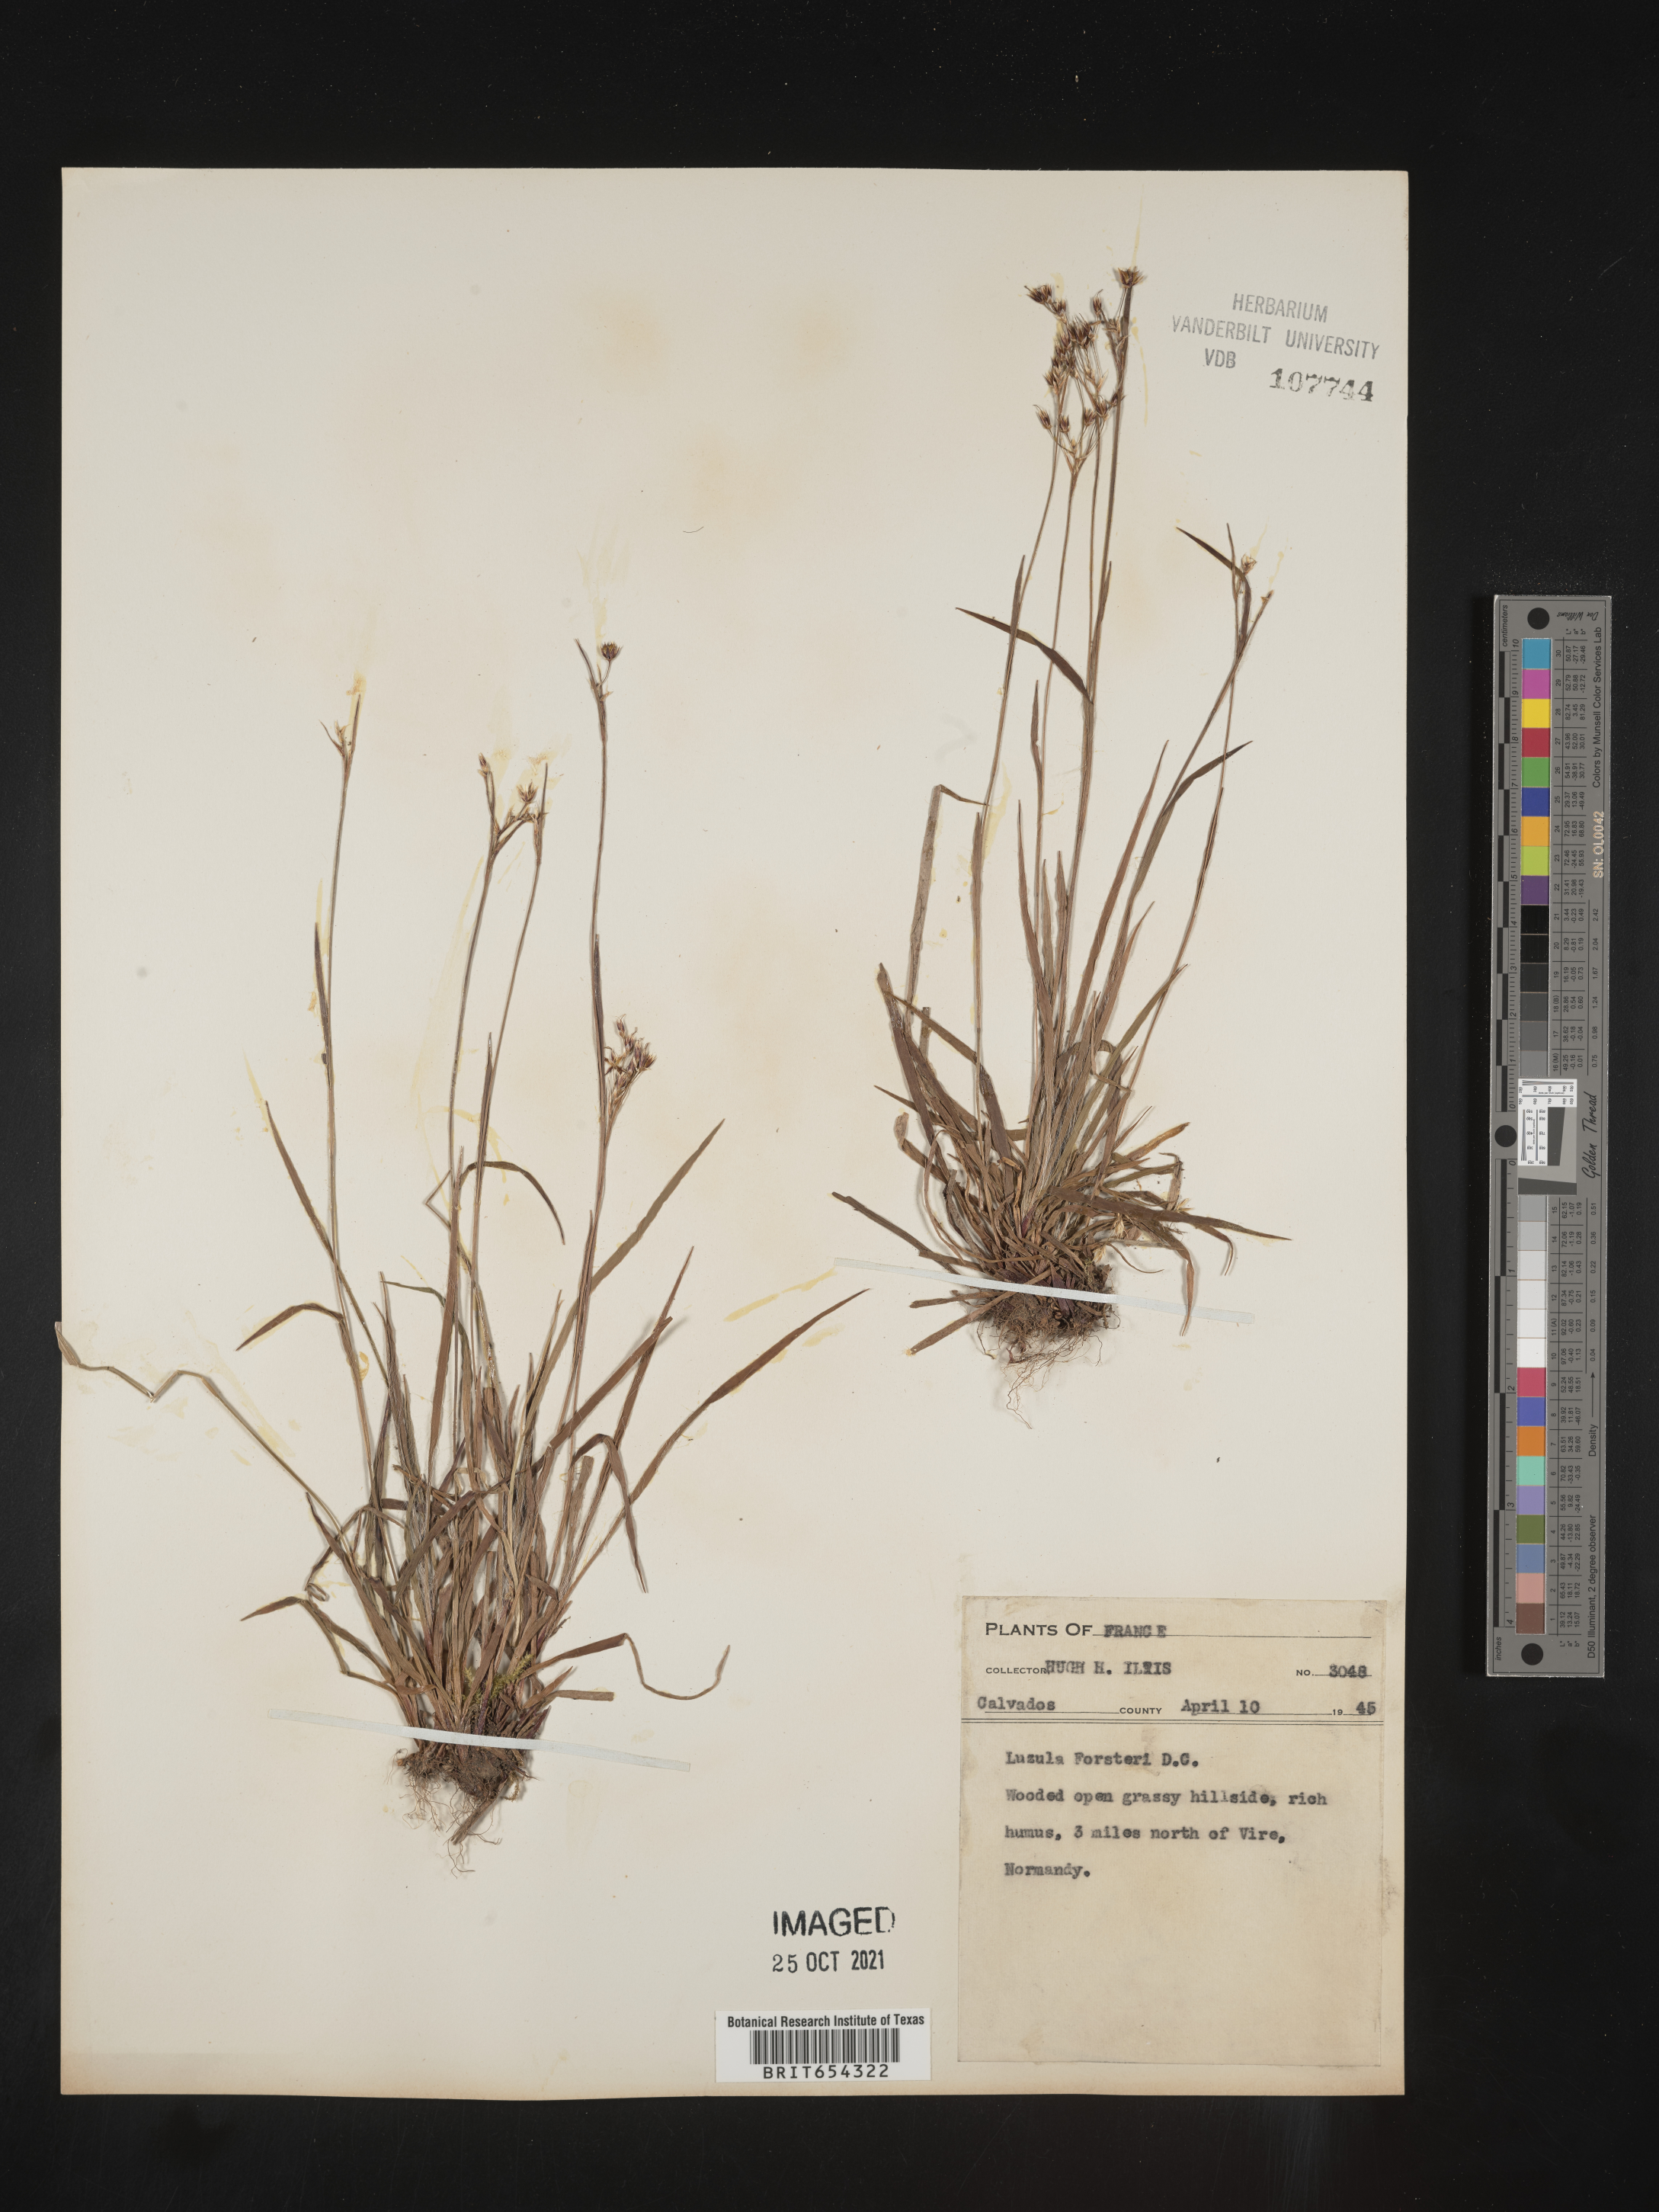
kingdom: Plantae
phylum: Tracheophyta
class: Liliopsida
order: Poales
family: Juncaceae
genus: Luzula
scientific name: Luzula
